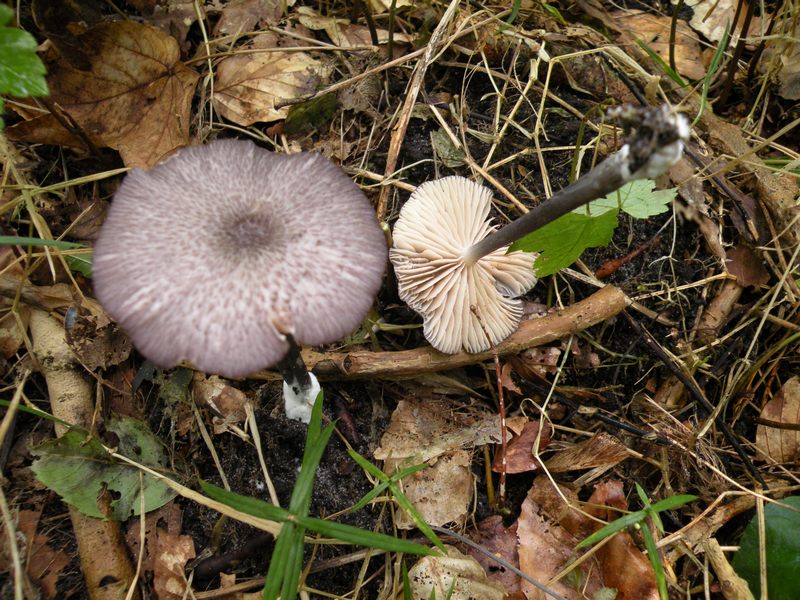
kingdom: Fungi
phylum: Basidiomycota
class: Agaricomycetes
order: Agaricales
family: Entolomataceae
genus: Entoloma
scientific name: Entoloma viiduense
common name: purpurbrun rødblad
